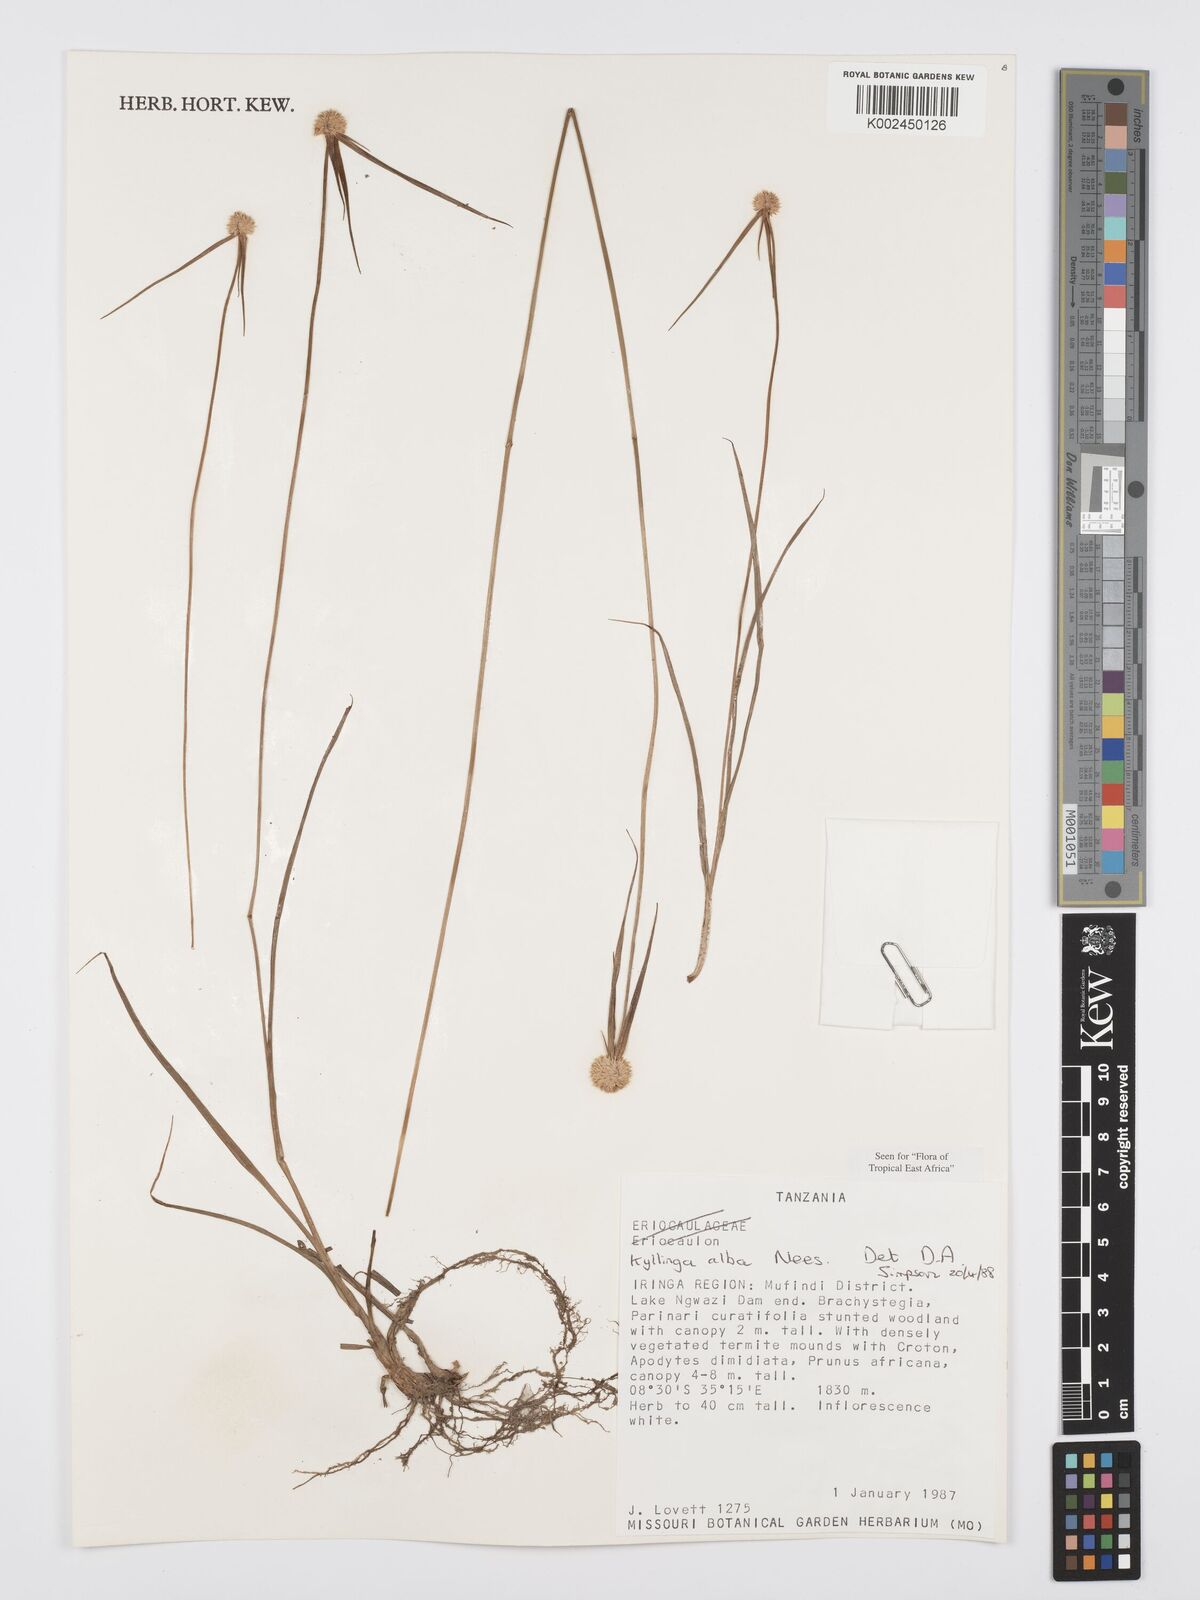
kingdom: Plantae
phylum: Tracheophyta
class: Liliopsida
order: Poales
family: Cyperaceae
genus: Cyperus
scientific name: Cyperus
